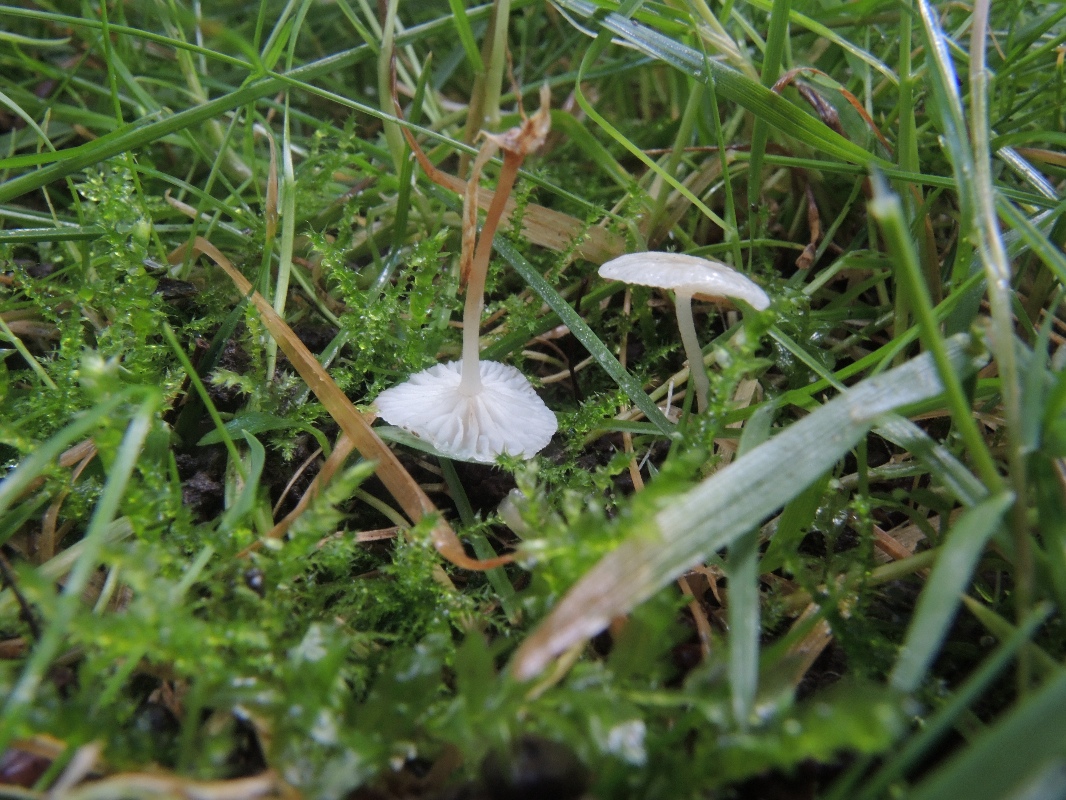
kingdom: Fungi
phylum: Basidiomycota
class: Agaricomycetes
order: Agaricales
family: Omphalotaceae
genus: Collybiopsis
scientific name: Collybiopsis vaillantii
